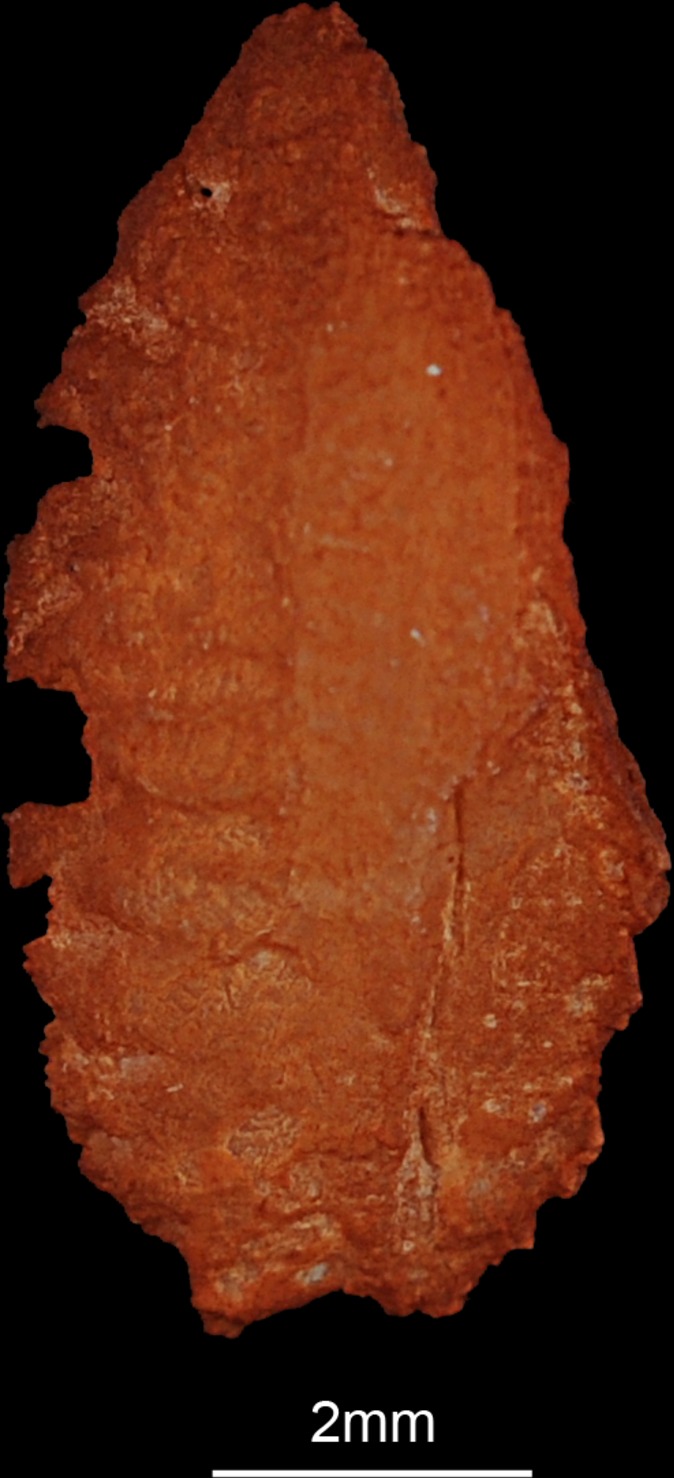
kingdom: Animalia
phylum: Chordata
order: Perciformes
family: Cichlidae
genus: Sarotherodon
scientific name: Sarotherodon galilaeus
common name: Mango tilapia
